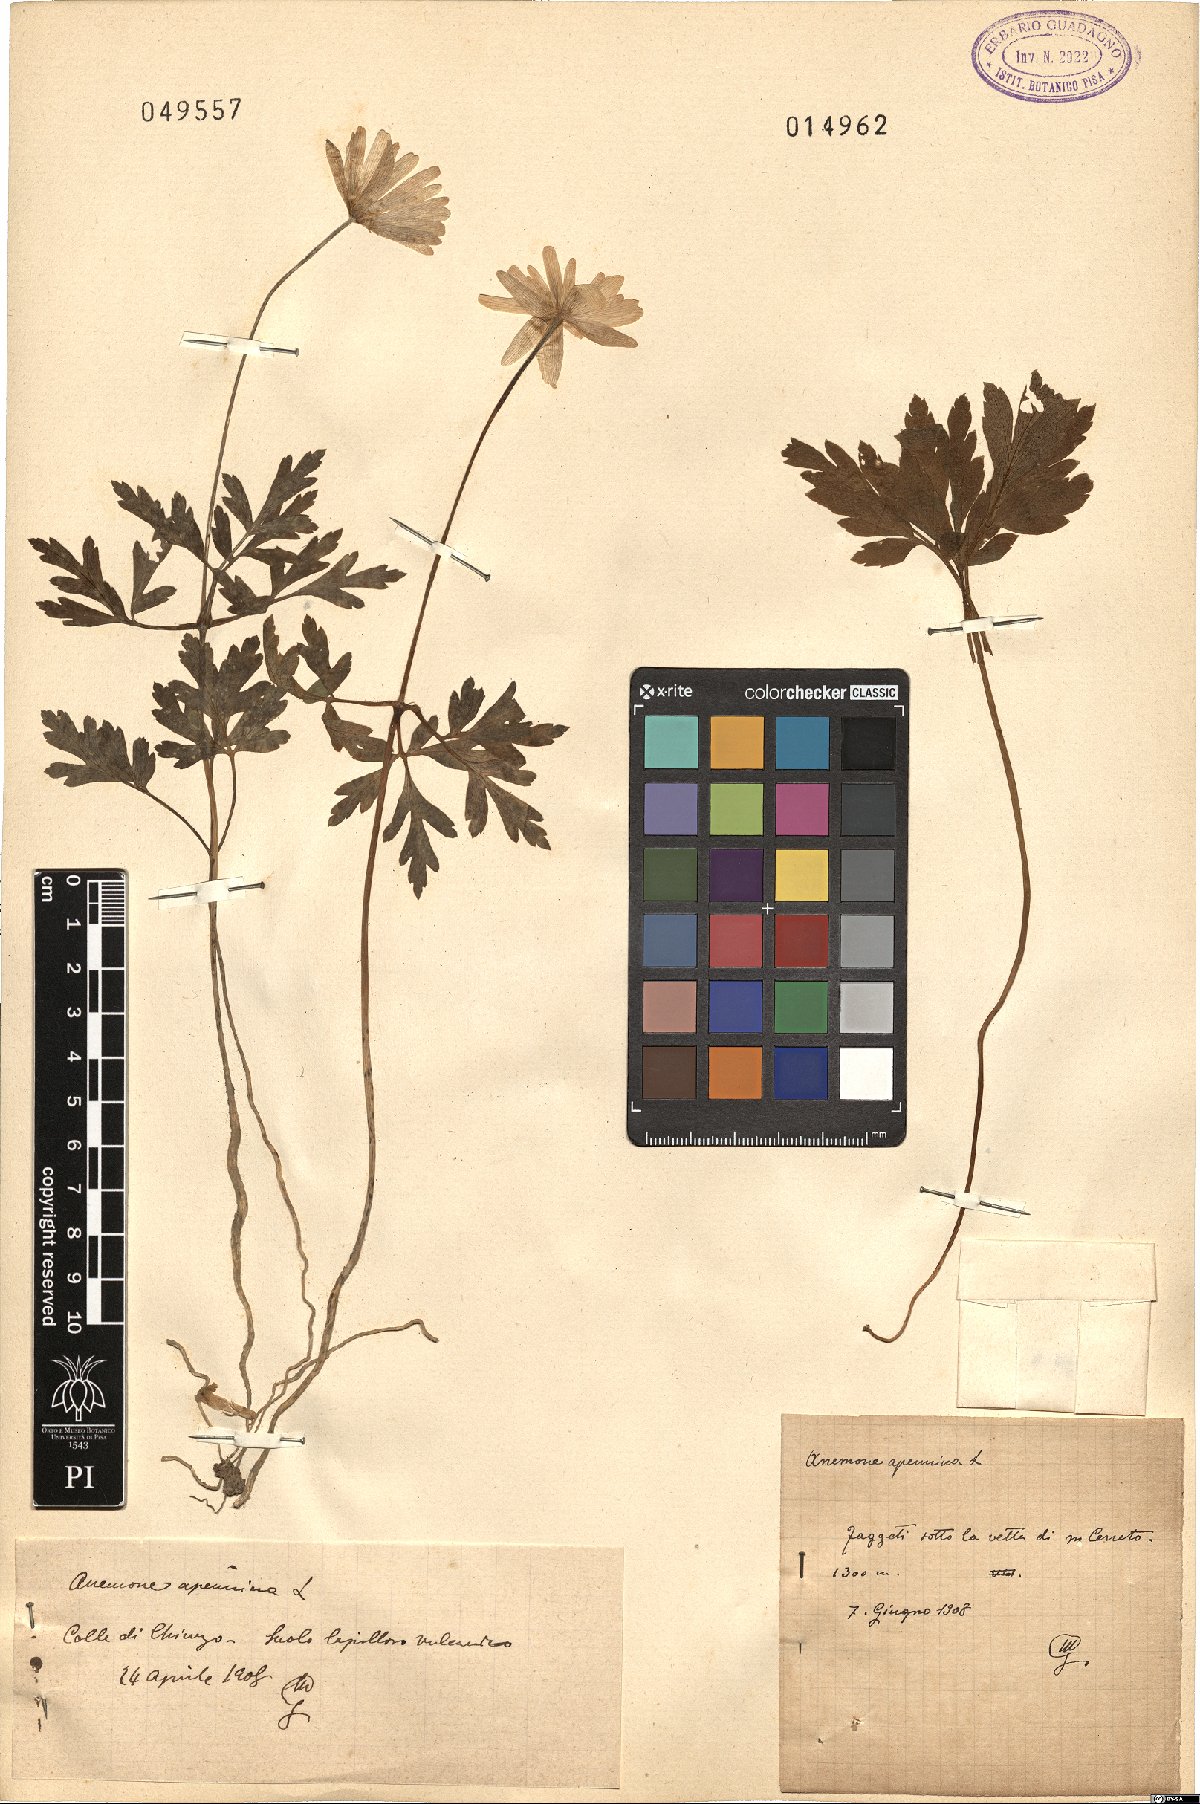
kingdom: Plantae
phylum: Tracheophyta
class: Magnoliopsida
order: Ranunculales
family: Ranunculaceae
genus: Anemone
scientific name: Anemone apennina
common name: Blue anemone
